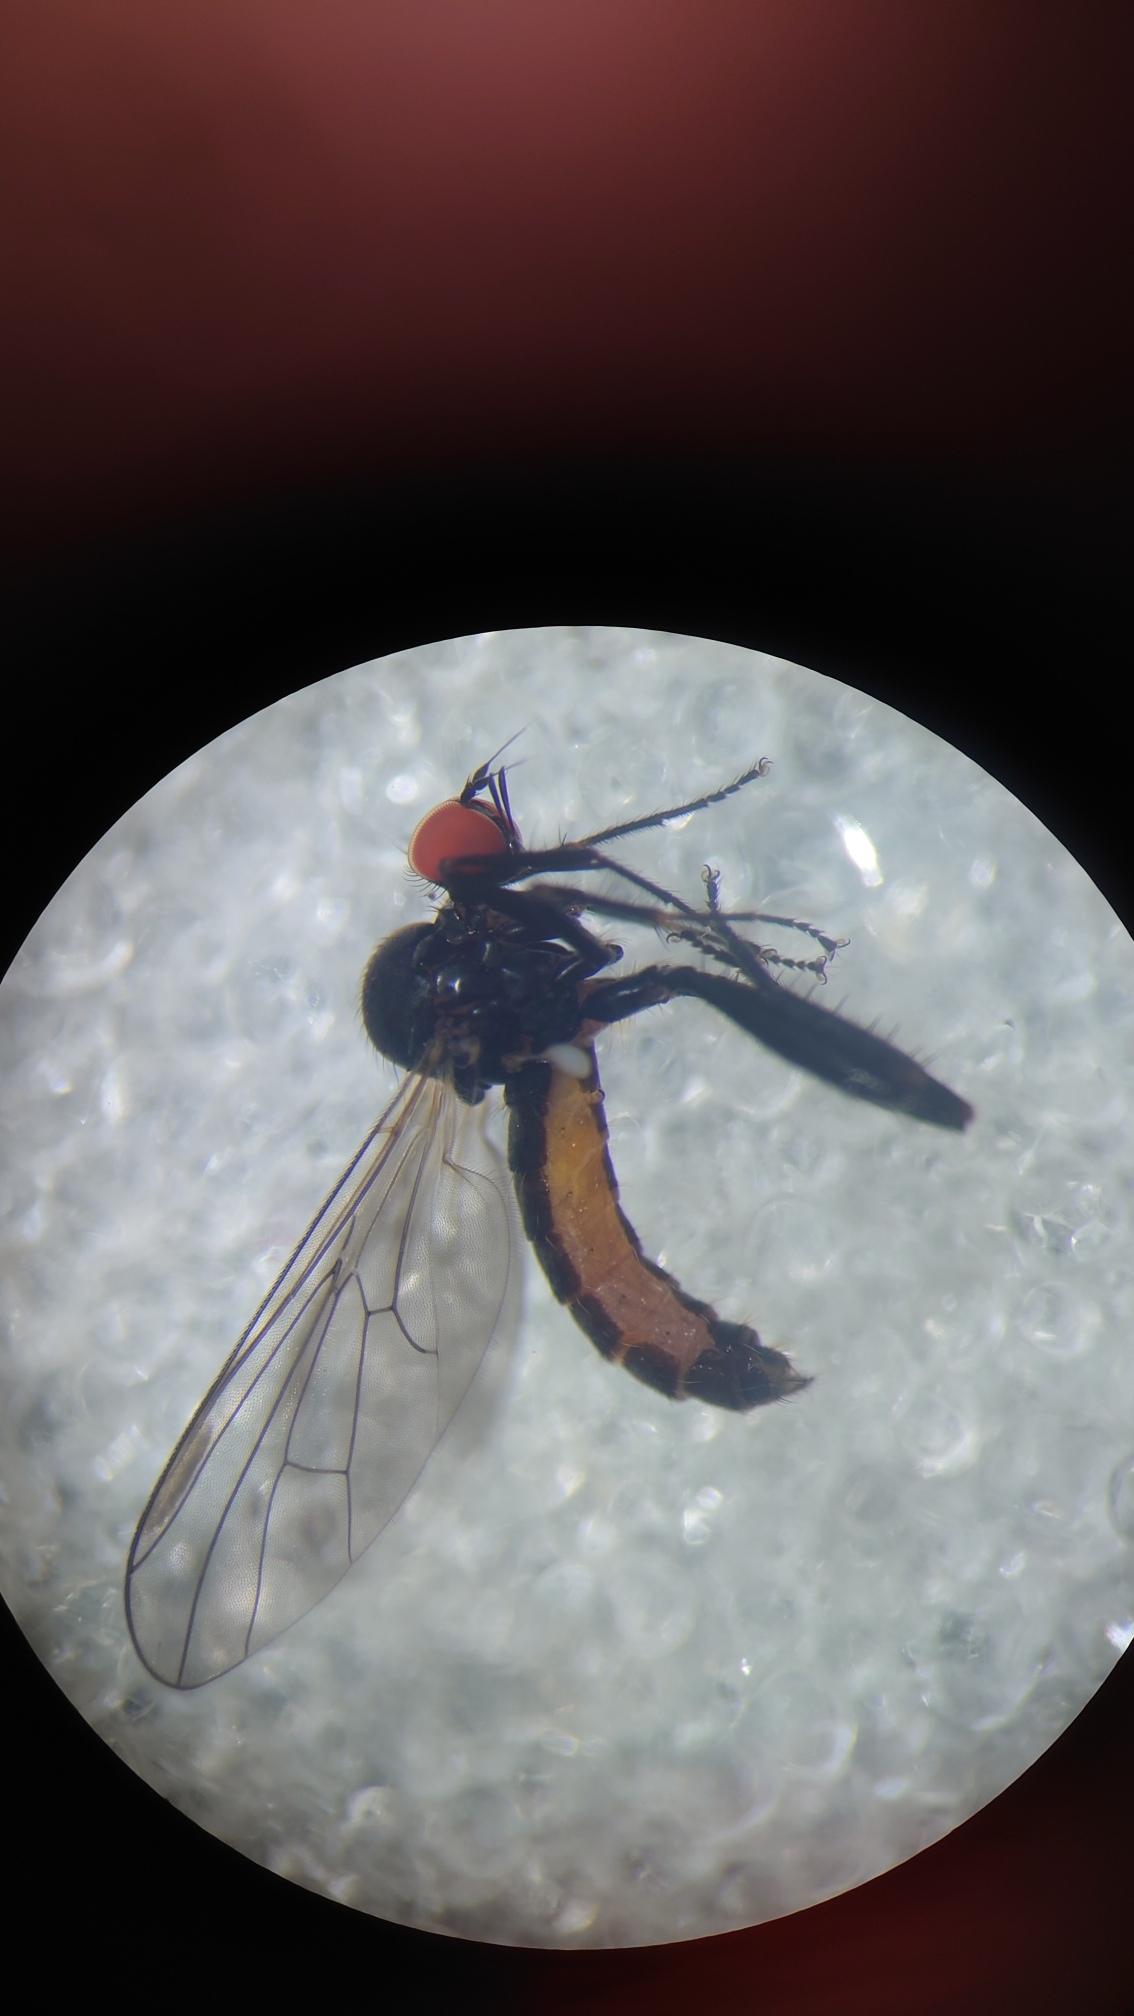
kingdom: Animalia
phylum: Arthropoda
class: Insecta
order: Diptera
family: Hybotidae
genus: Hybos
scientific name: Hybos culiciformis
